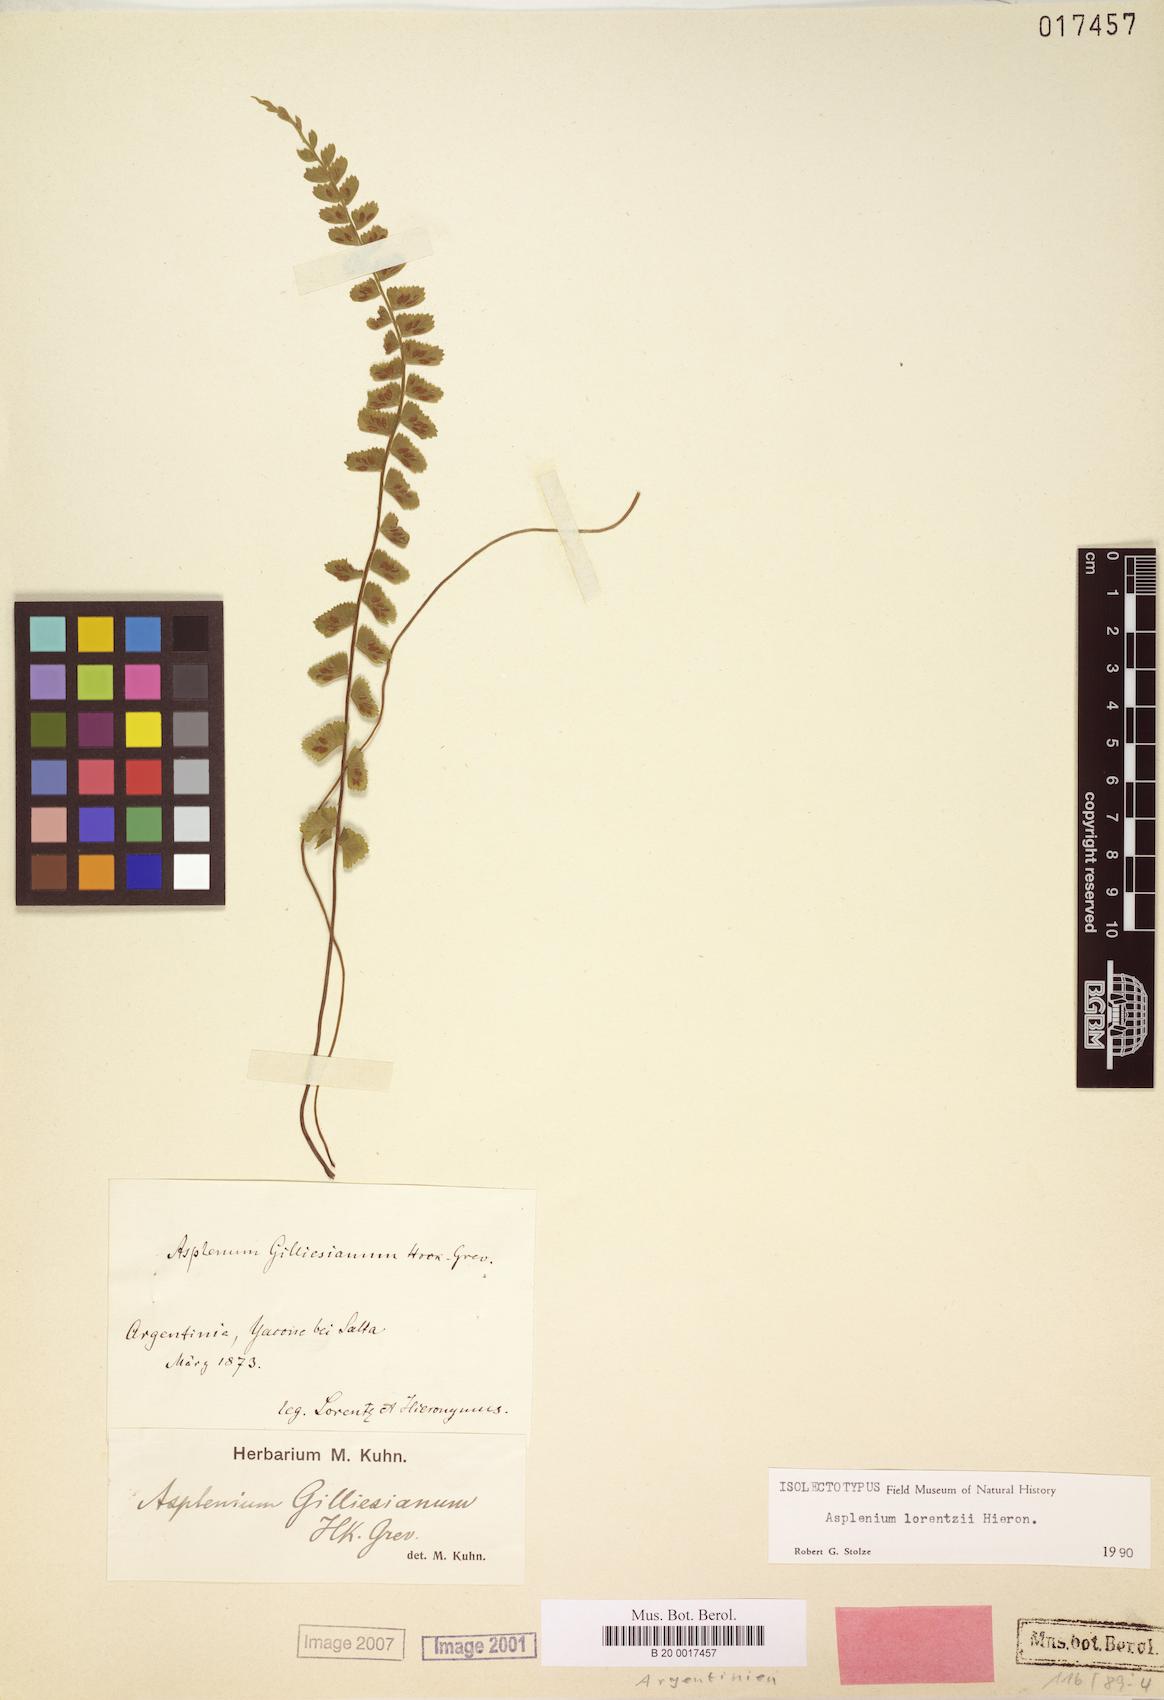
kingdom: Plantae
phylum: Tracheophyta
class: Polypodiopsida
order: Polypodiales
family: Thelypteridaceae
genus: Amauropelta
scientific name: Amauropelta argentina
